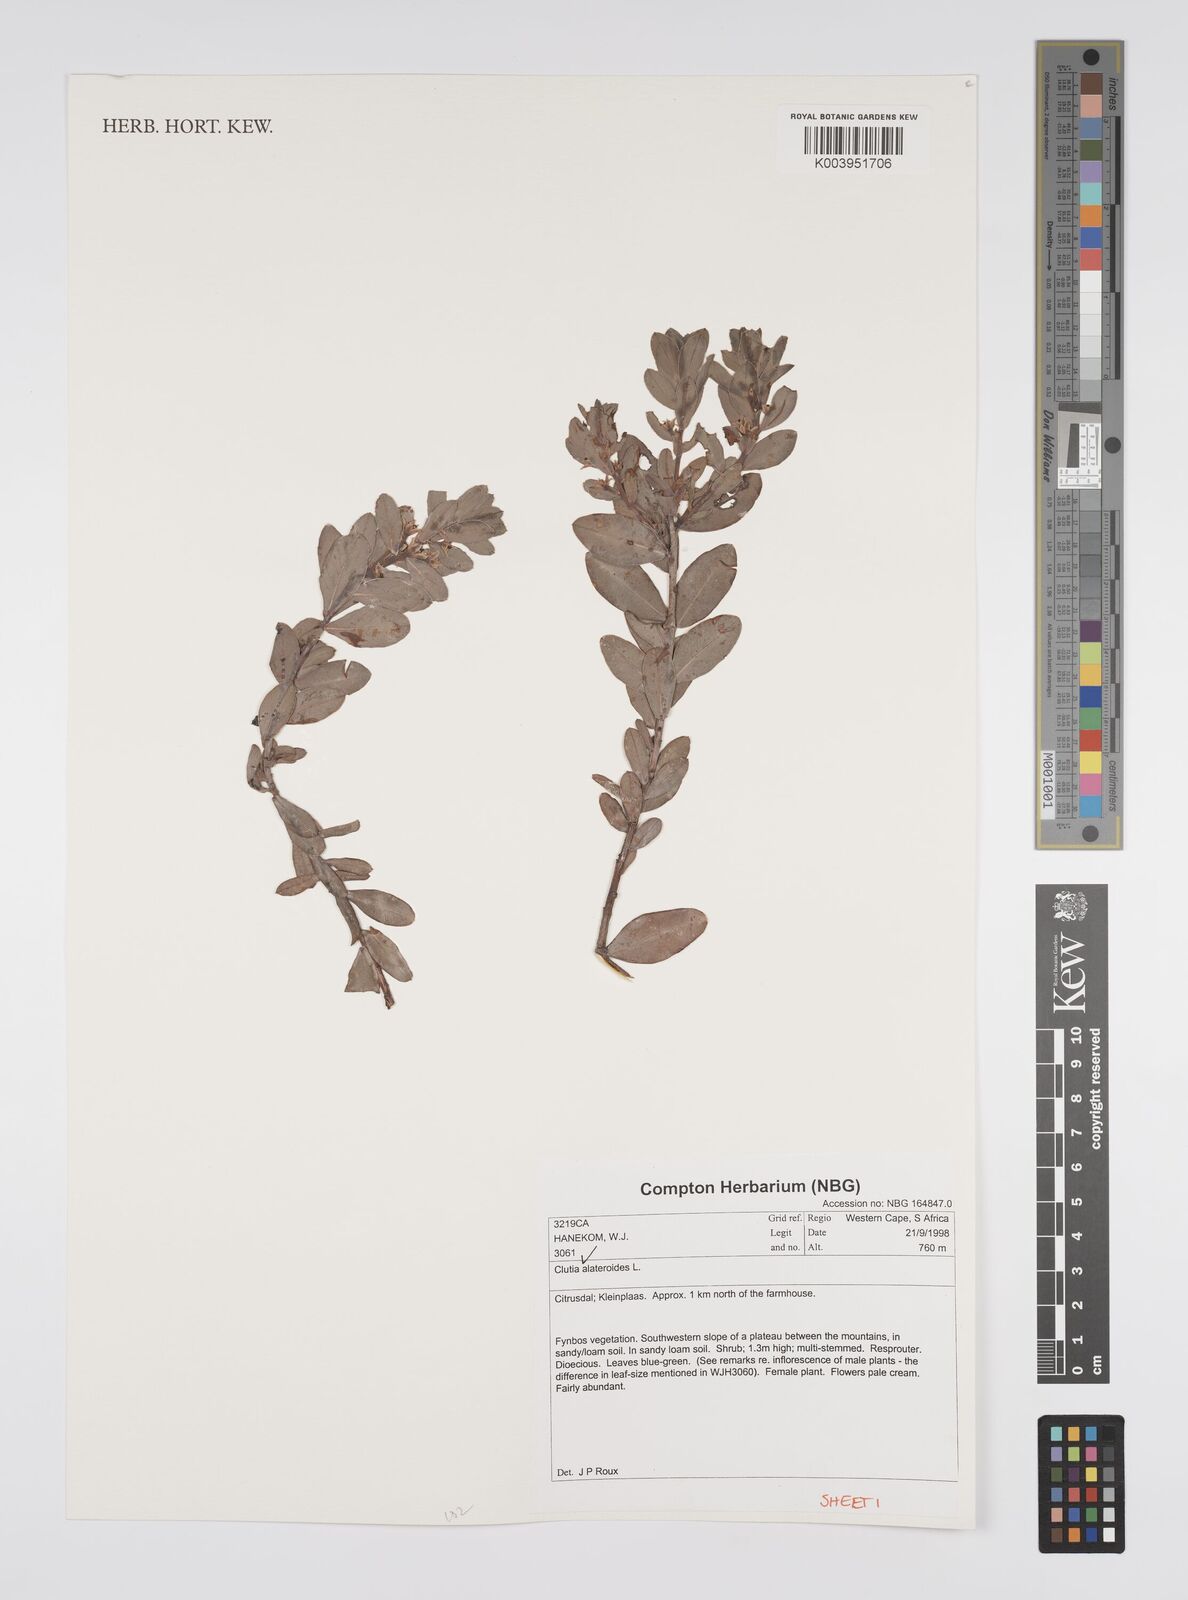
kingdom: Plantae
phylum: Tracheophyta
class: Magnoliopsida
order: Malpighiales
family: Peraceae
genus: Clutia
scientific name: Clutia alaternoides
